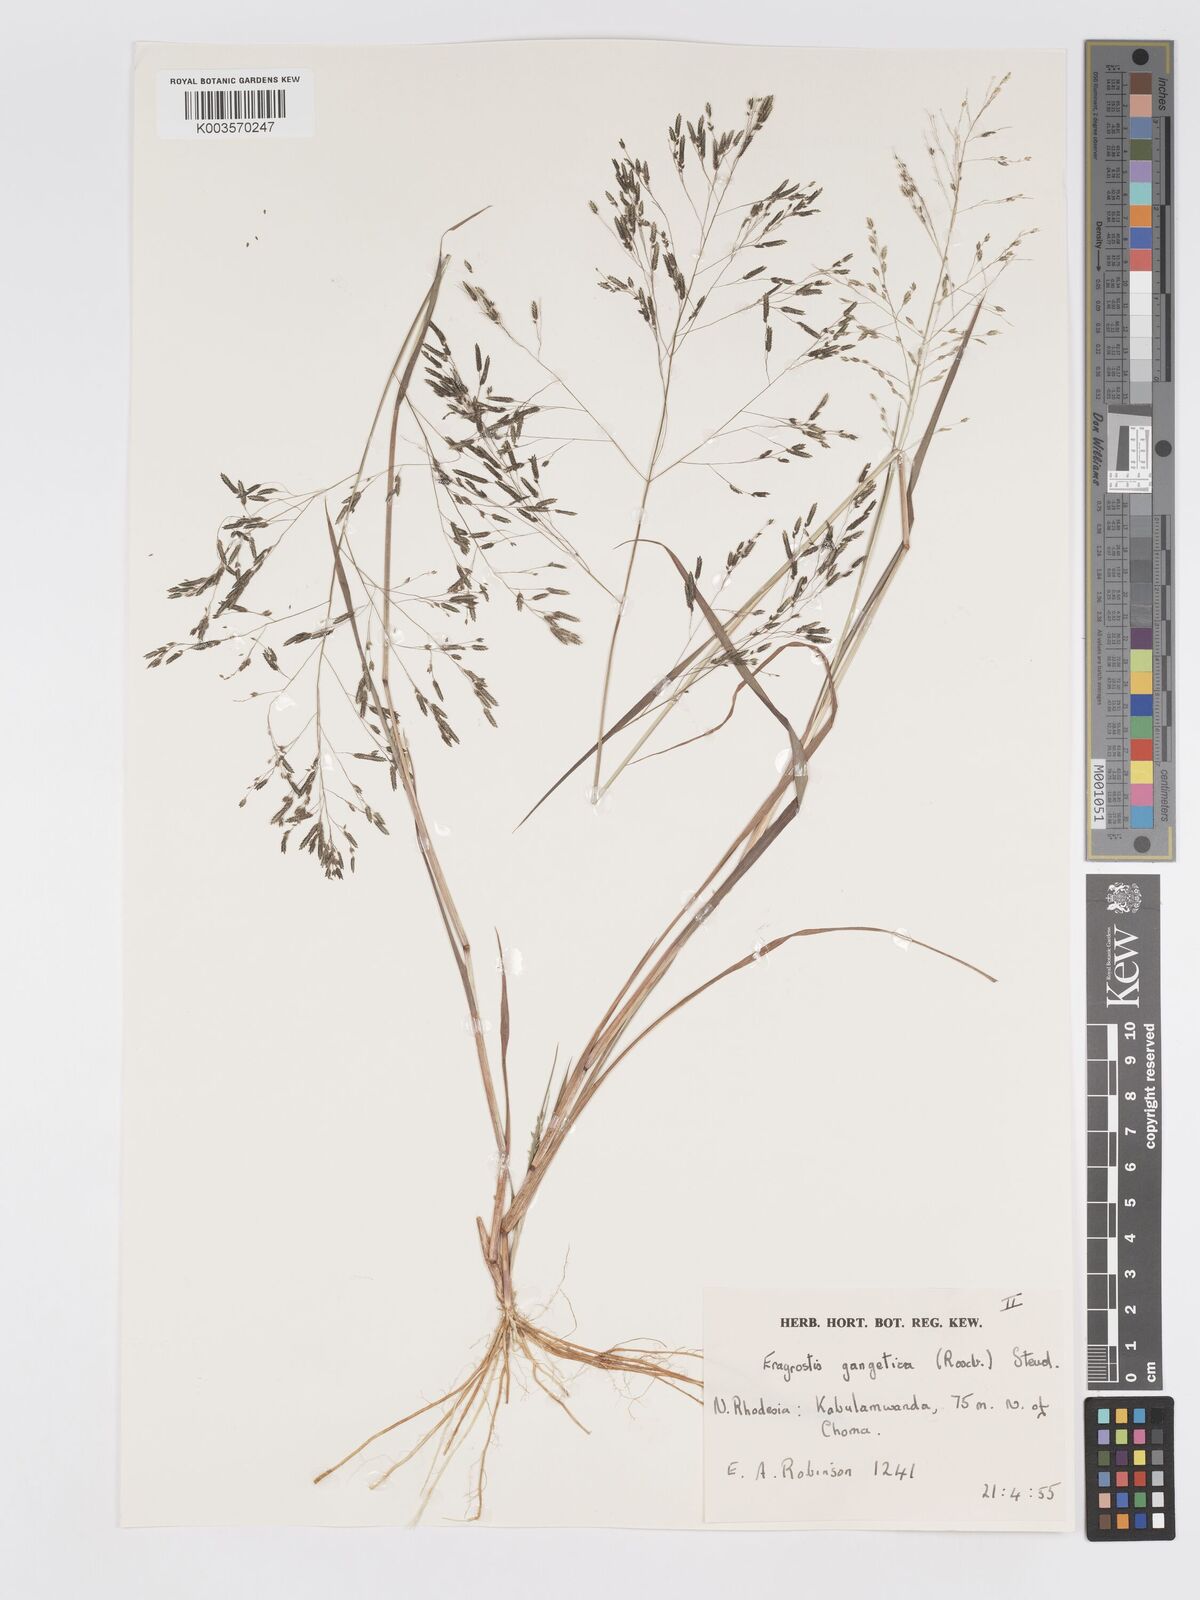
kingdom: Plantae
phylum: Tracheophyta
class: Liliopsida
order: Poales
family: Poaceae
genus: Eragrostis
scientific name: Eragrostis gangetica
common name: Slimflower lovegrass
